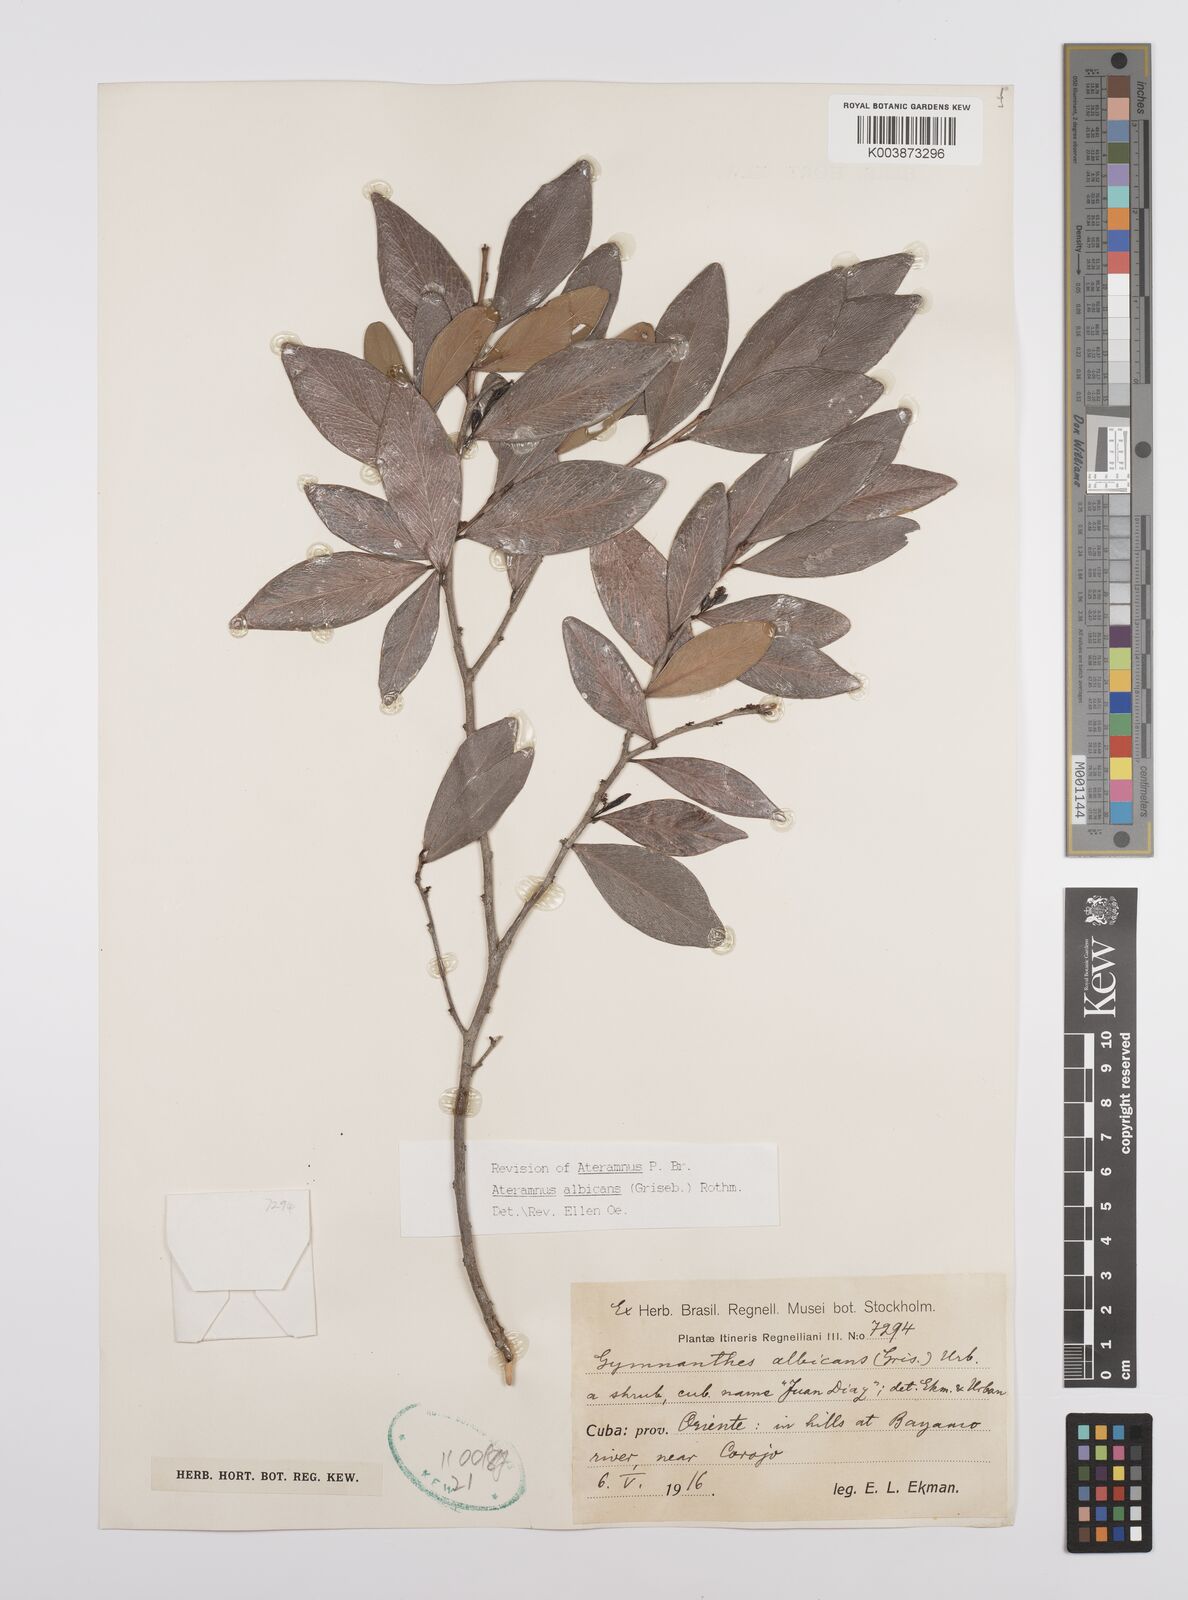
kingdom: Plantae
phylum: Tracheophyta
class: Magnoliopsida
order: Malpighiales
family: Euphorbiaceae
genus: Gymnanthes
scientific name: Gymnanthes albicans
